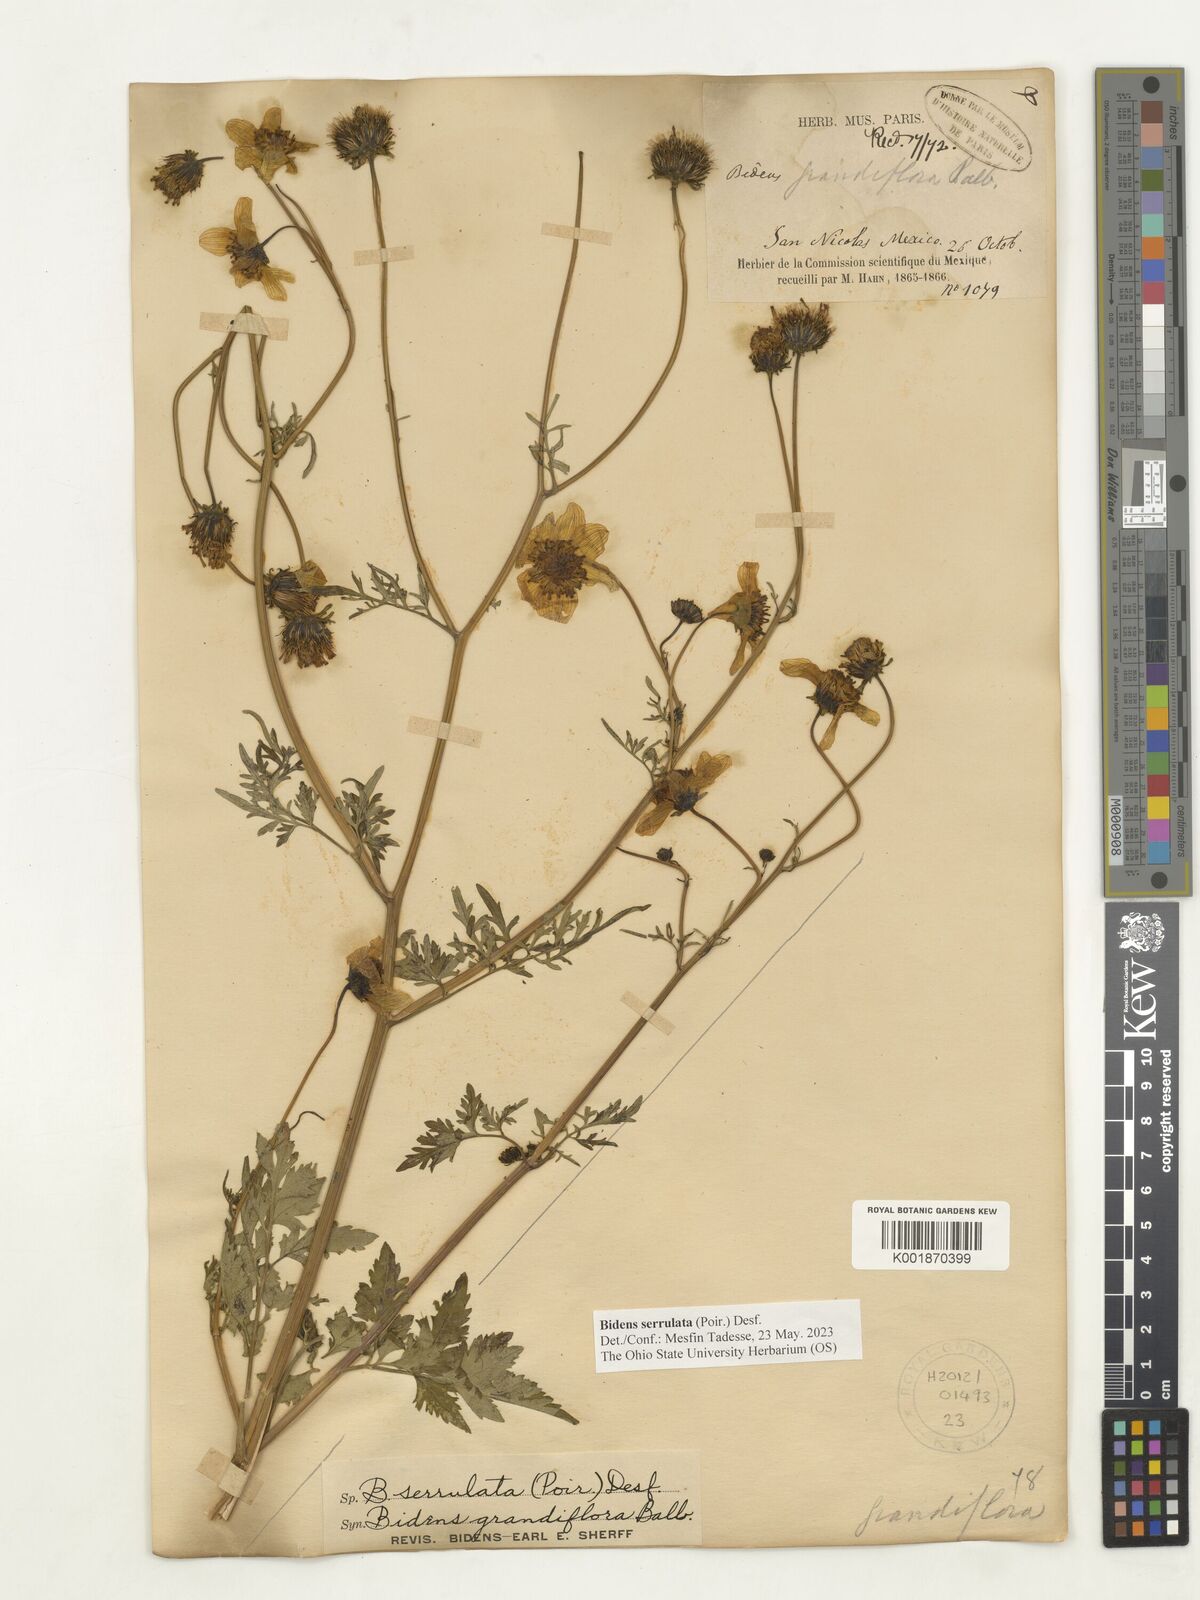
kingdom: Plantae
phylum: Tracheophyta
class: Magnoliopsida
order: Asterales
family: Asteraceae
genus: Bidens
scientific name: Bidens serrulata
